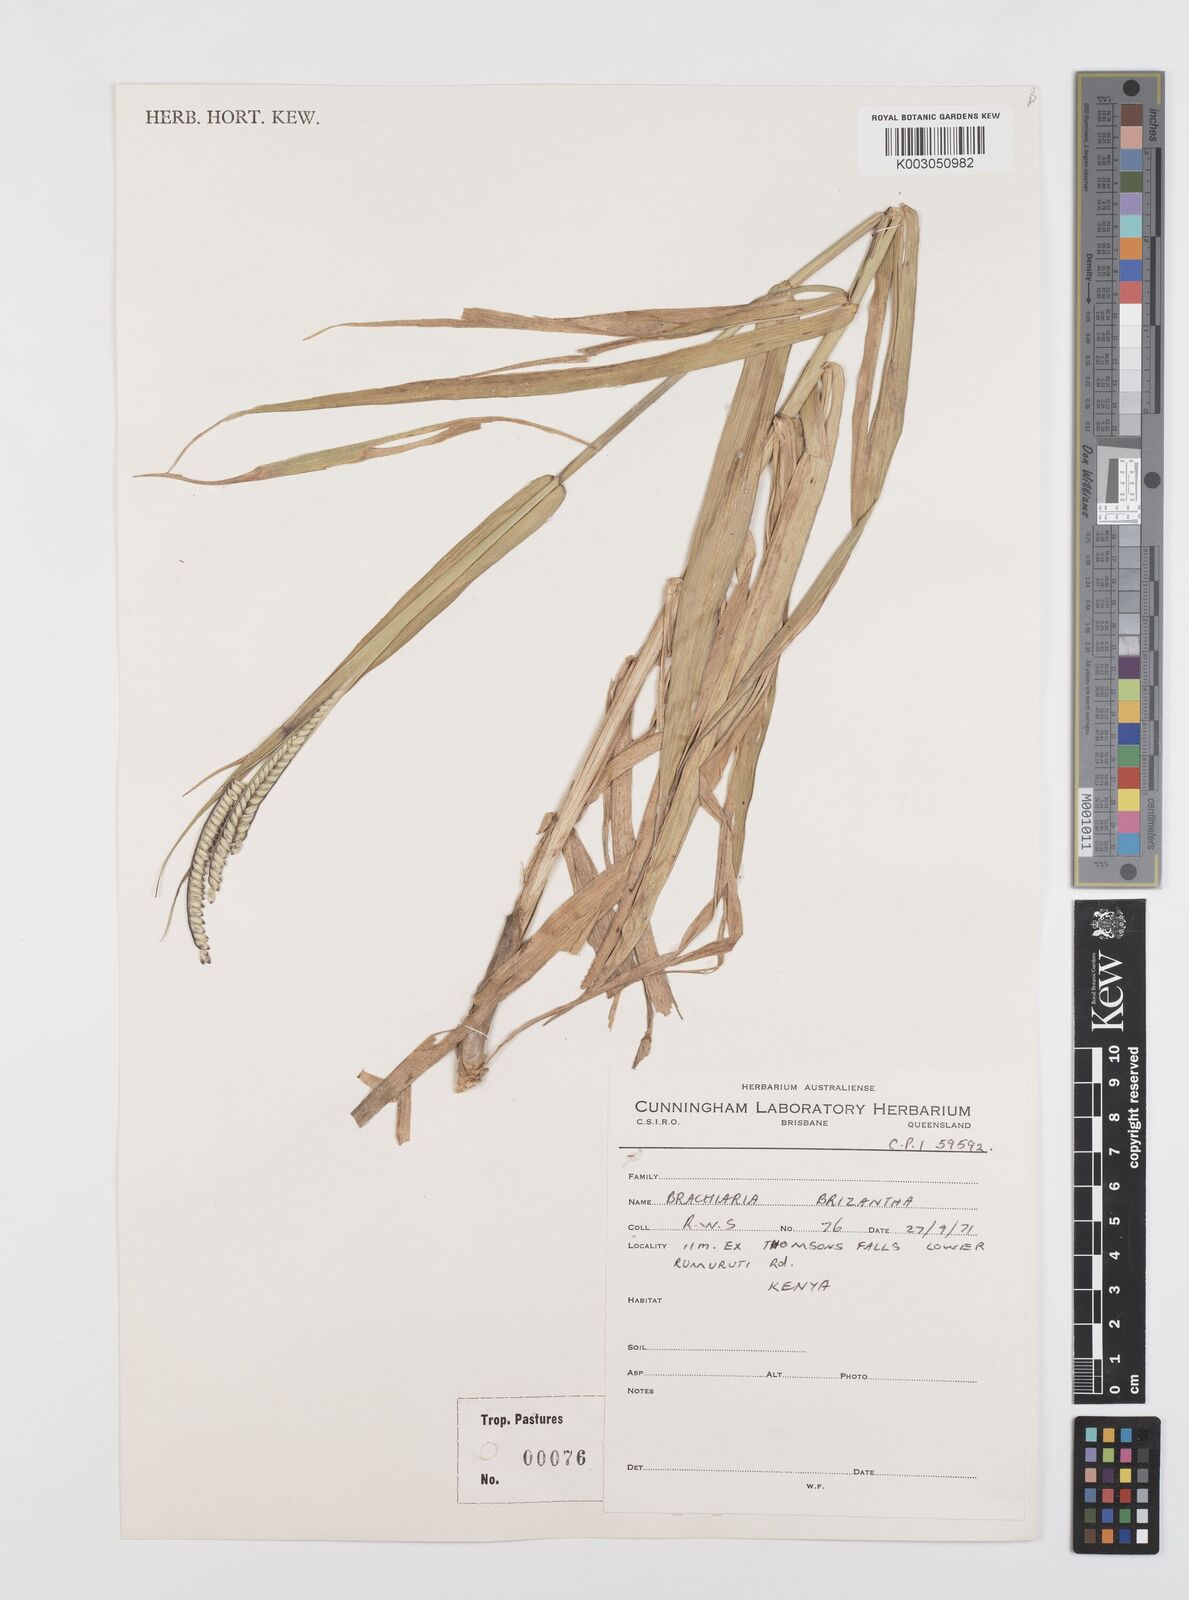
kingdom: Plantae
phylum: Tracheophyta
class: Liliopsida
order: Poales
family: Poaceae
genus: Urochloa
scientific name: Urochloa brizantha
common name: Palisade signalgrass
